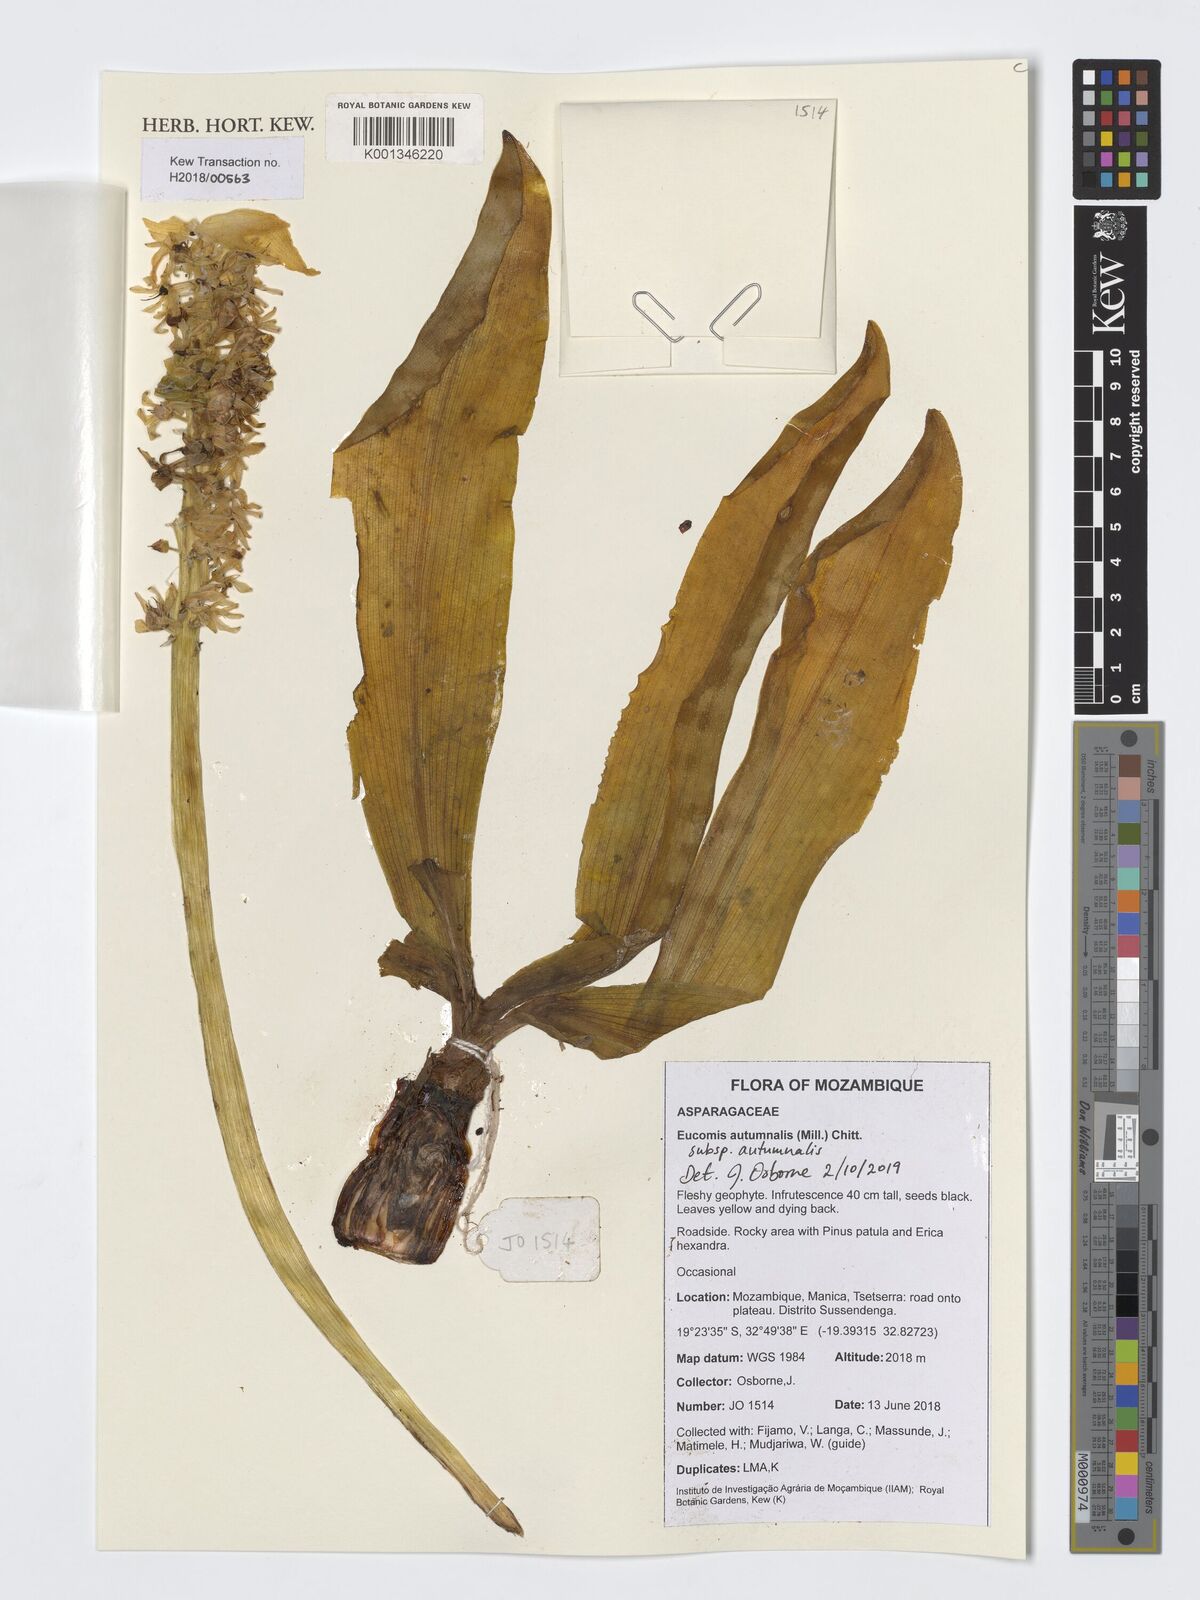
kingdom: Plantae
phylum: Tracheophyta
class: Liliopsida
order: Asparagales
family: Asparagaceae
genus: Eucomis
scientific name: Eucomis autumnalis
